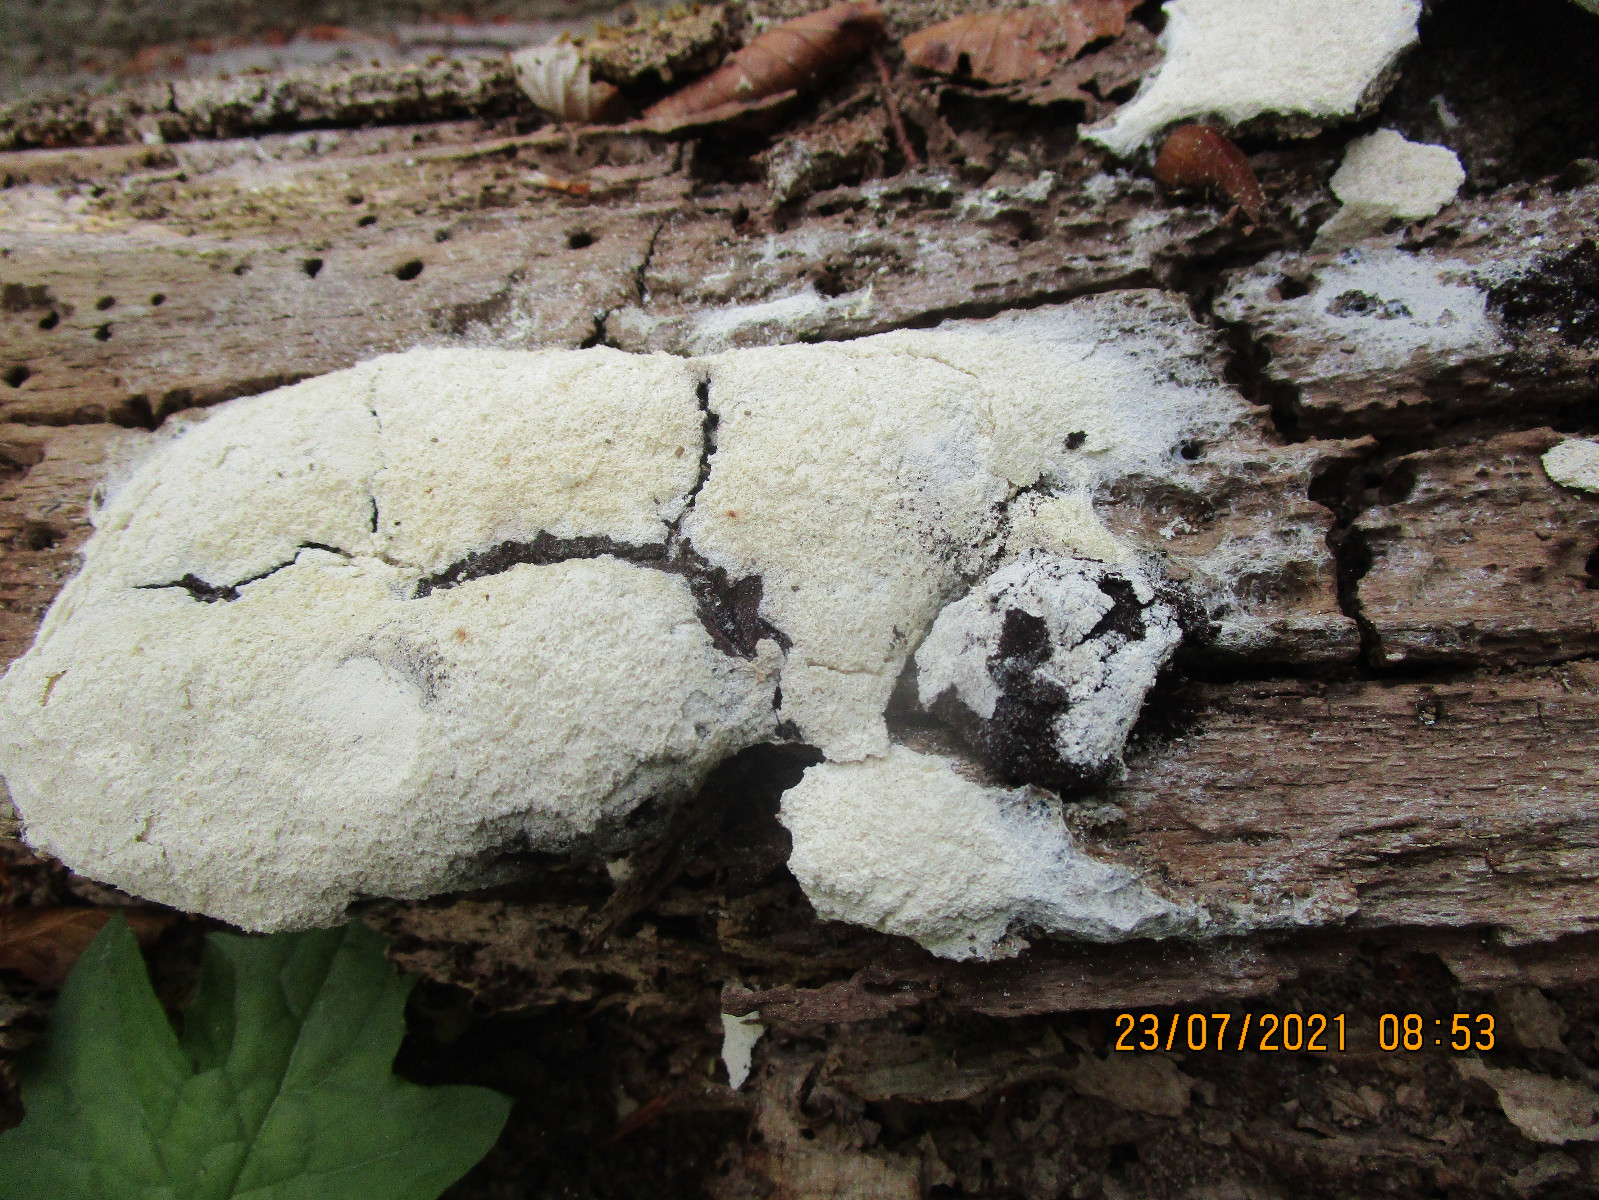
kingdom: Protozoa
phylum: Mycetozoa
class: Myxomycetes
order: Physarales
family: Physaraceae
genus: Fuligo
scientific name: Fuligo septica
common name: gul troldsmør
